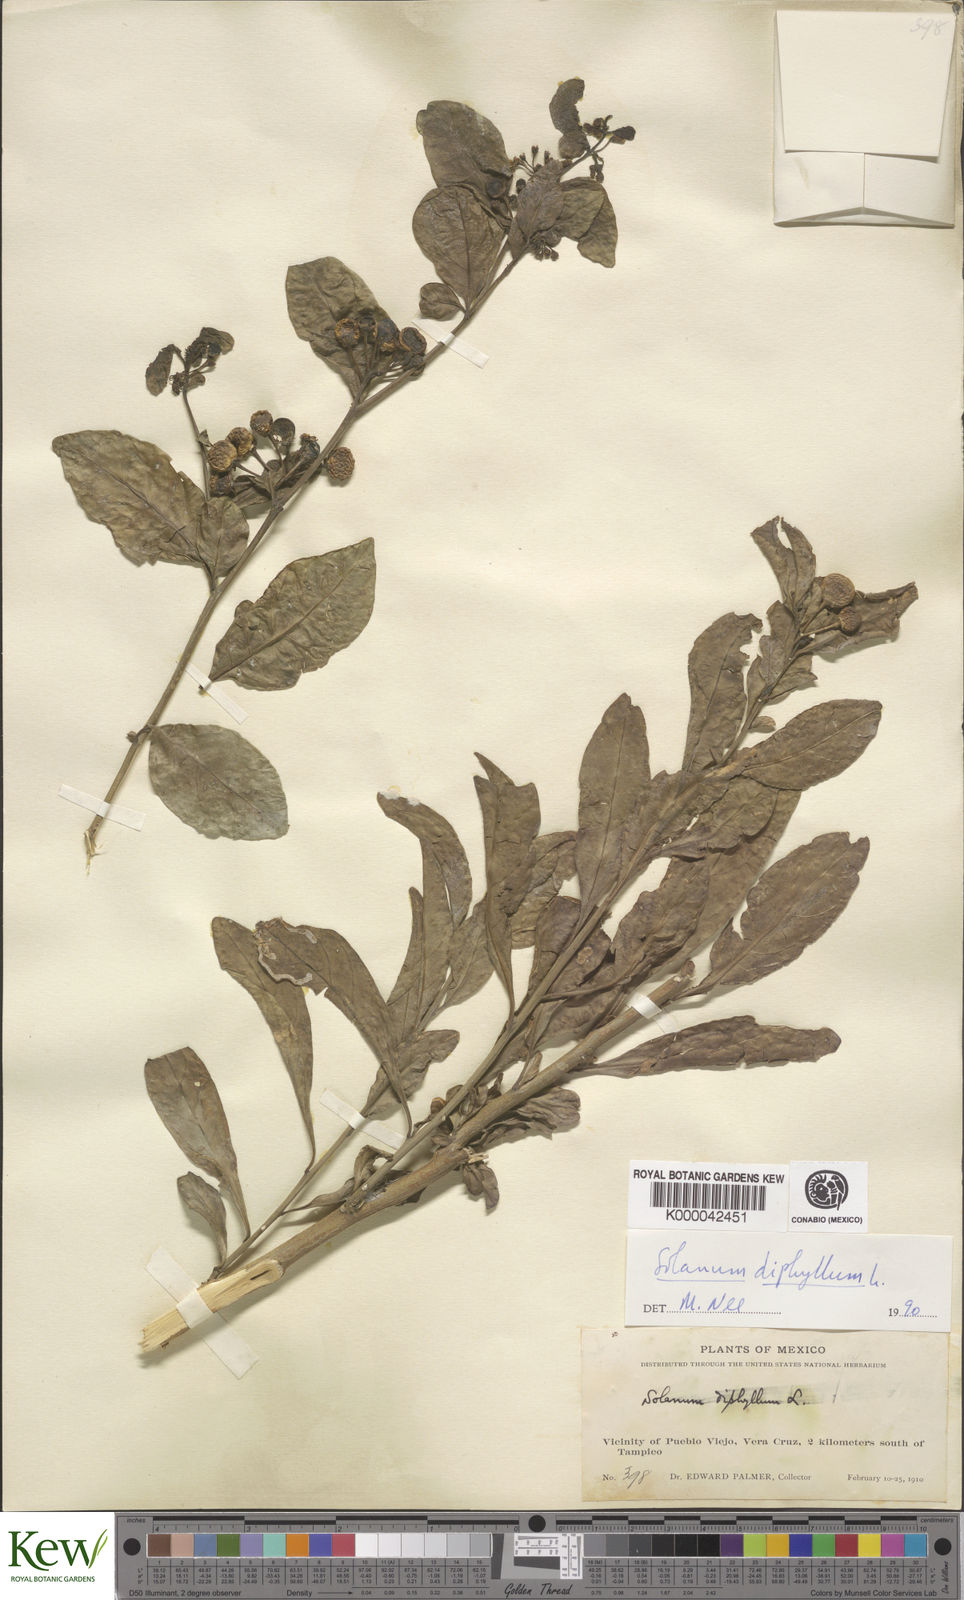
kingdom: Plantae
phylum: Tracheophyta
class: Magnoliopsida
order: Solanales
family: Solanaceae
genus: Solanum
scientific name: Solanum
